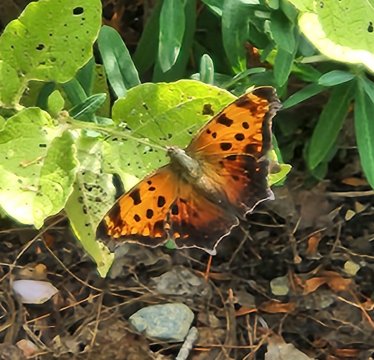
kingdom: Animalia
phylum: Arthropoda
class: Insecta
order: Lepidoptera
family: Nymphalidae
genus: Polygonia
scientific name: Polygonia comma
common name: Eastern Comma
